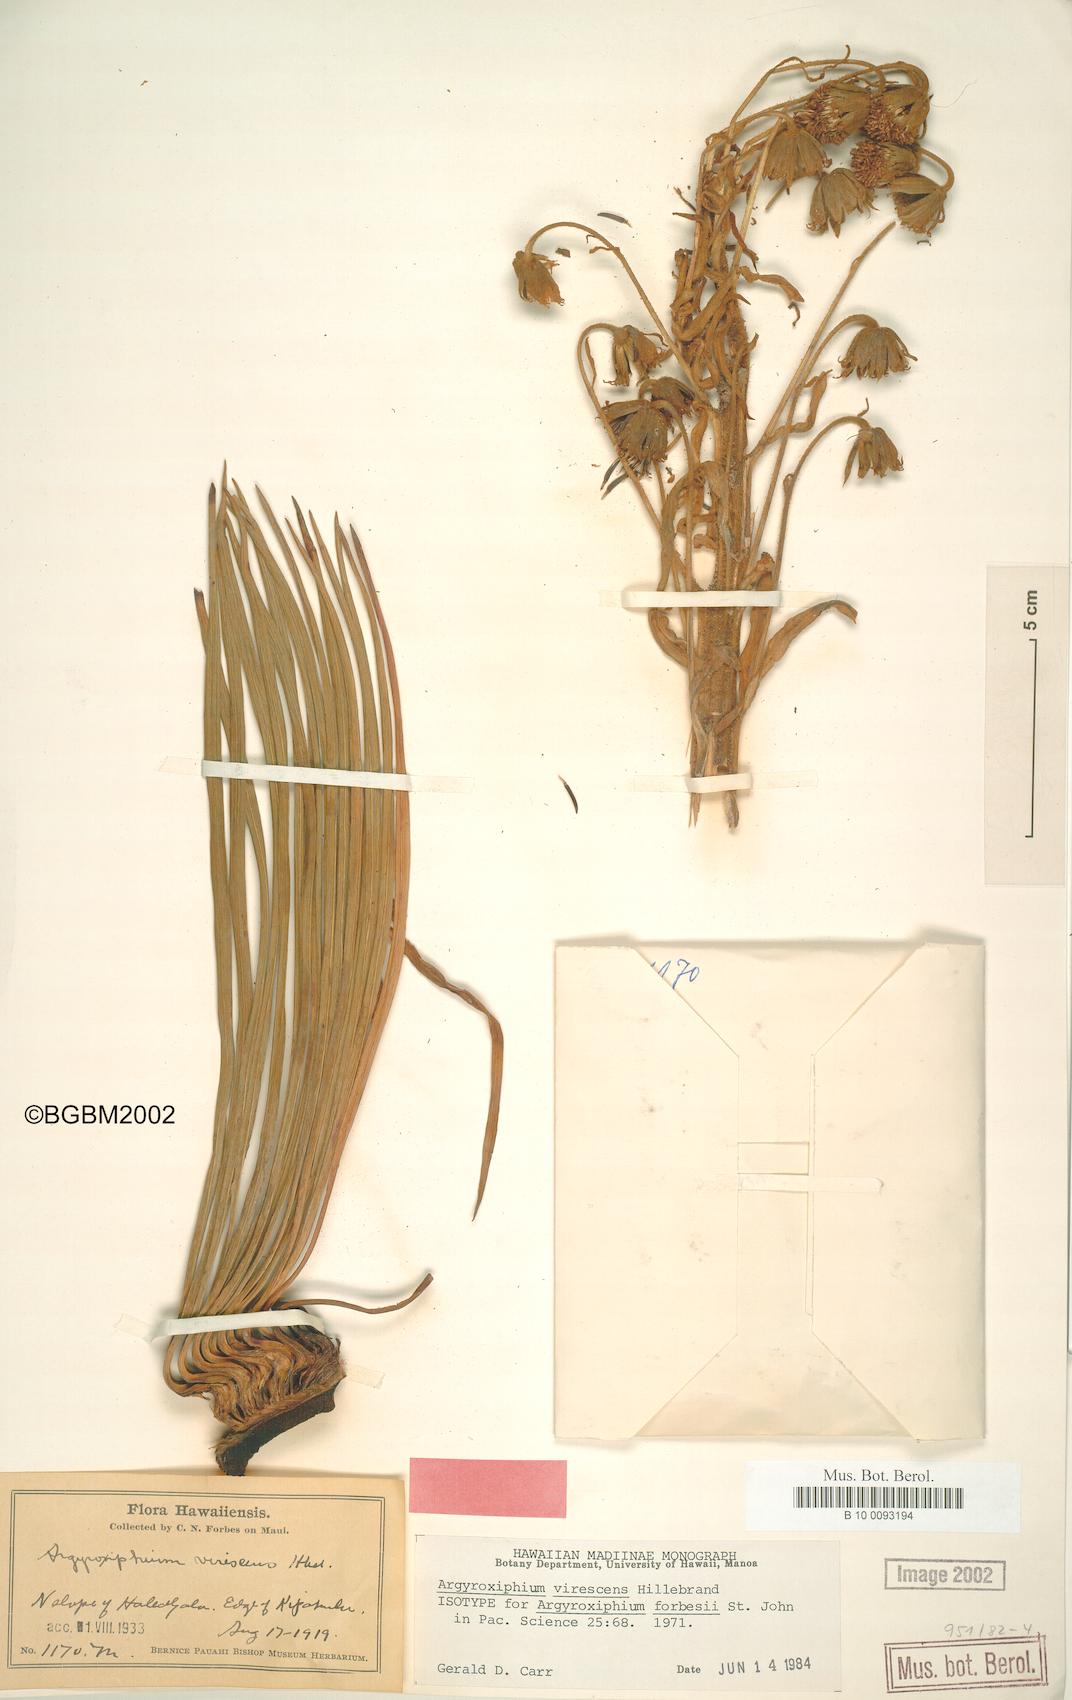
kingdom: Plantae
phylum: Tracheophyta
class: Magnoliopsida
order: Asterales
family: Asteraceae
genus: Argyroxiphium
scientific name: Argyroxiphium virescens
